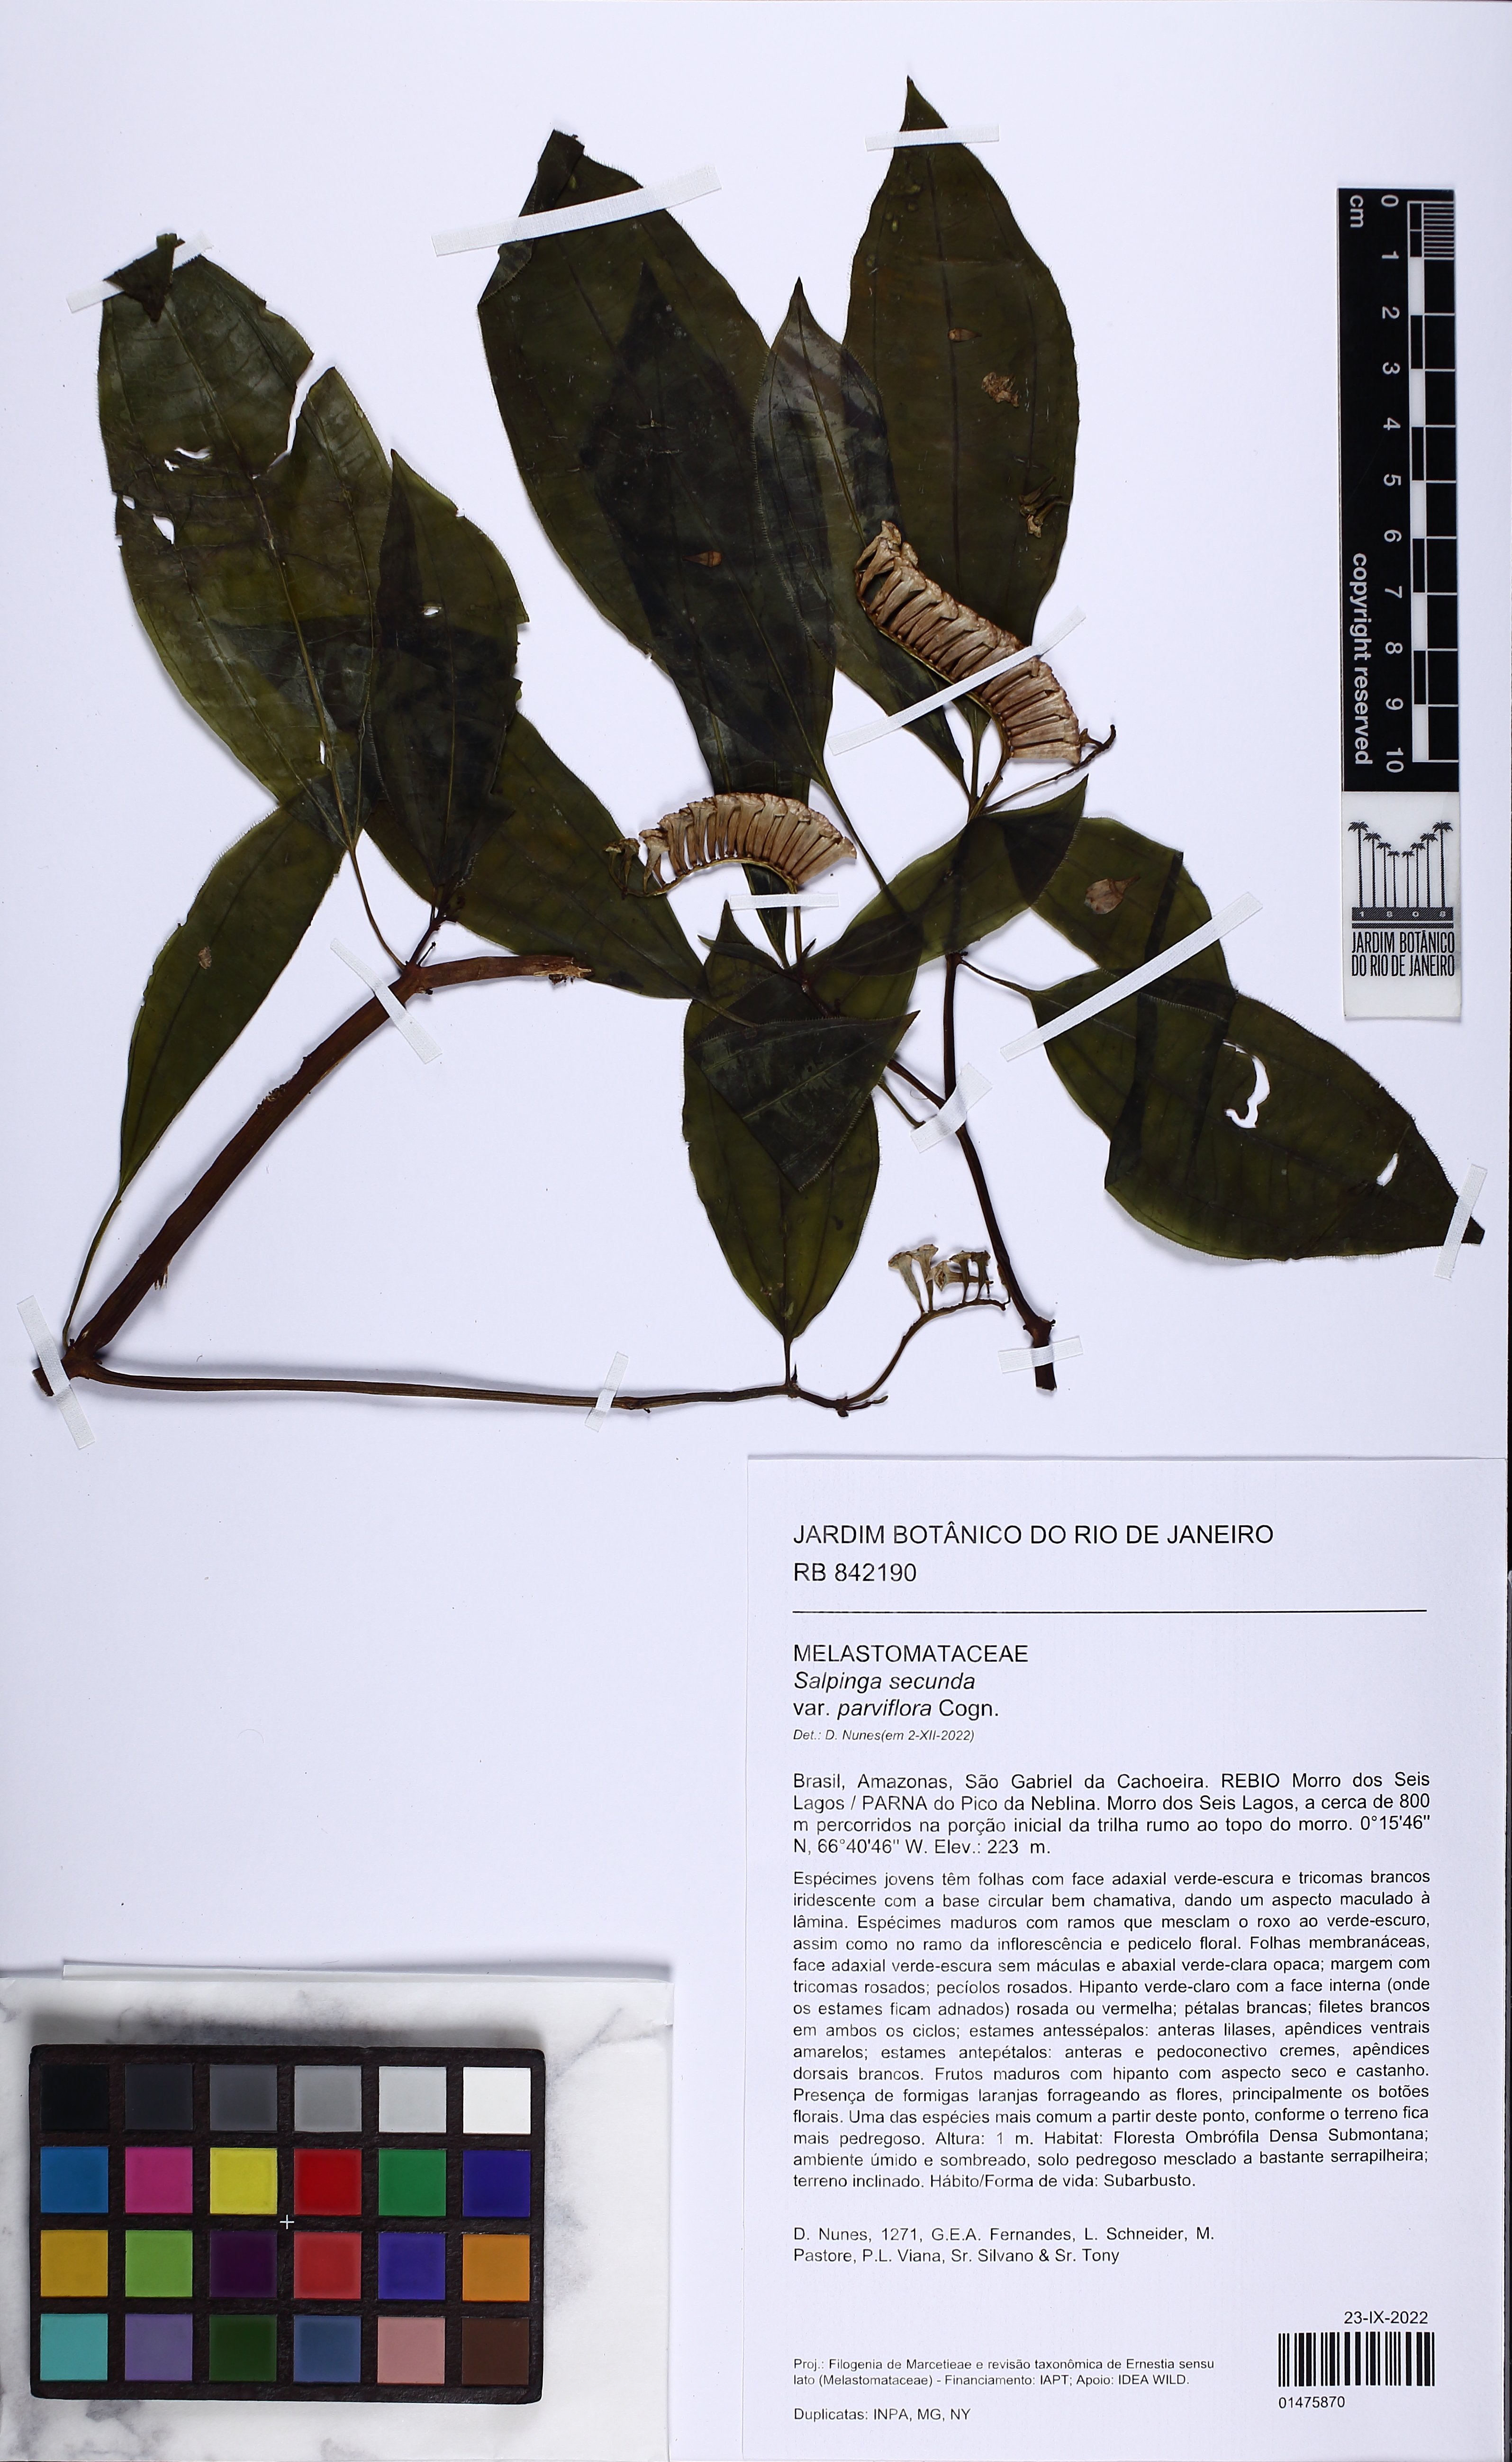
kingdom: Plantae
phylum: Tracheophyta
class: Magnoliopsida
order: Myrtales
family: Melastomataceae
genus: Salpinga
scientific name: Salpinga secunda
